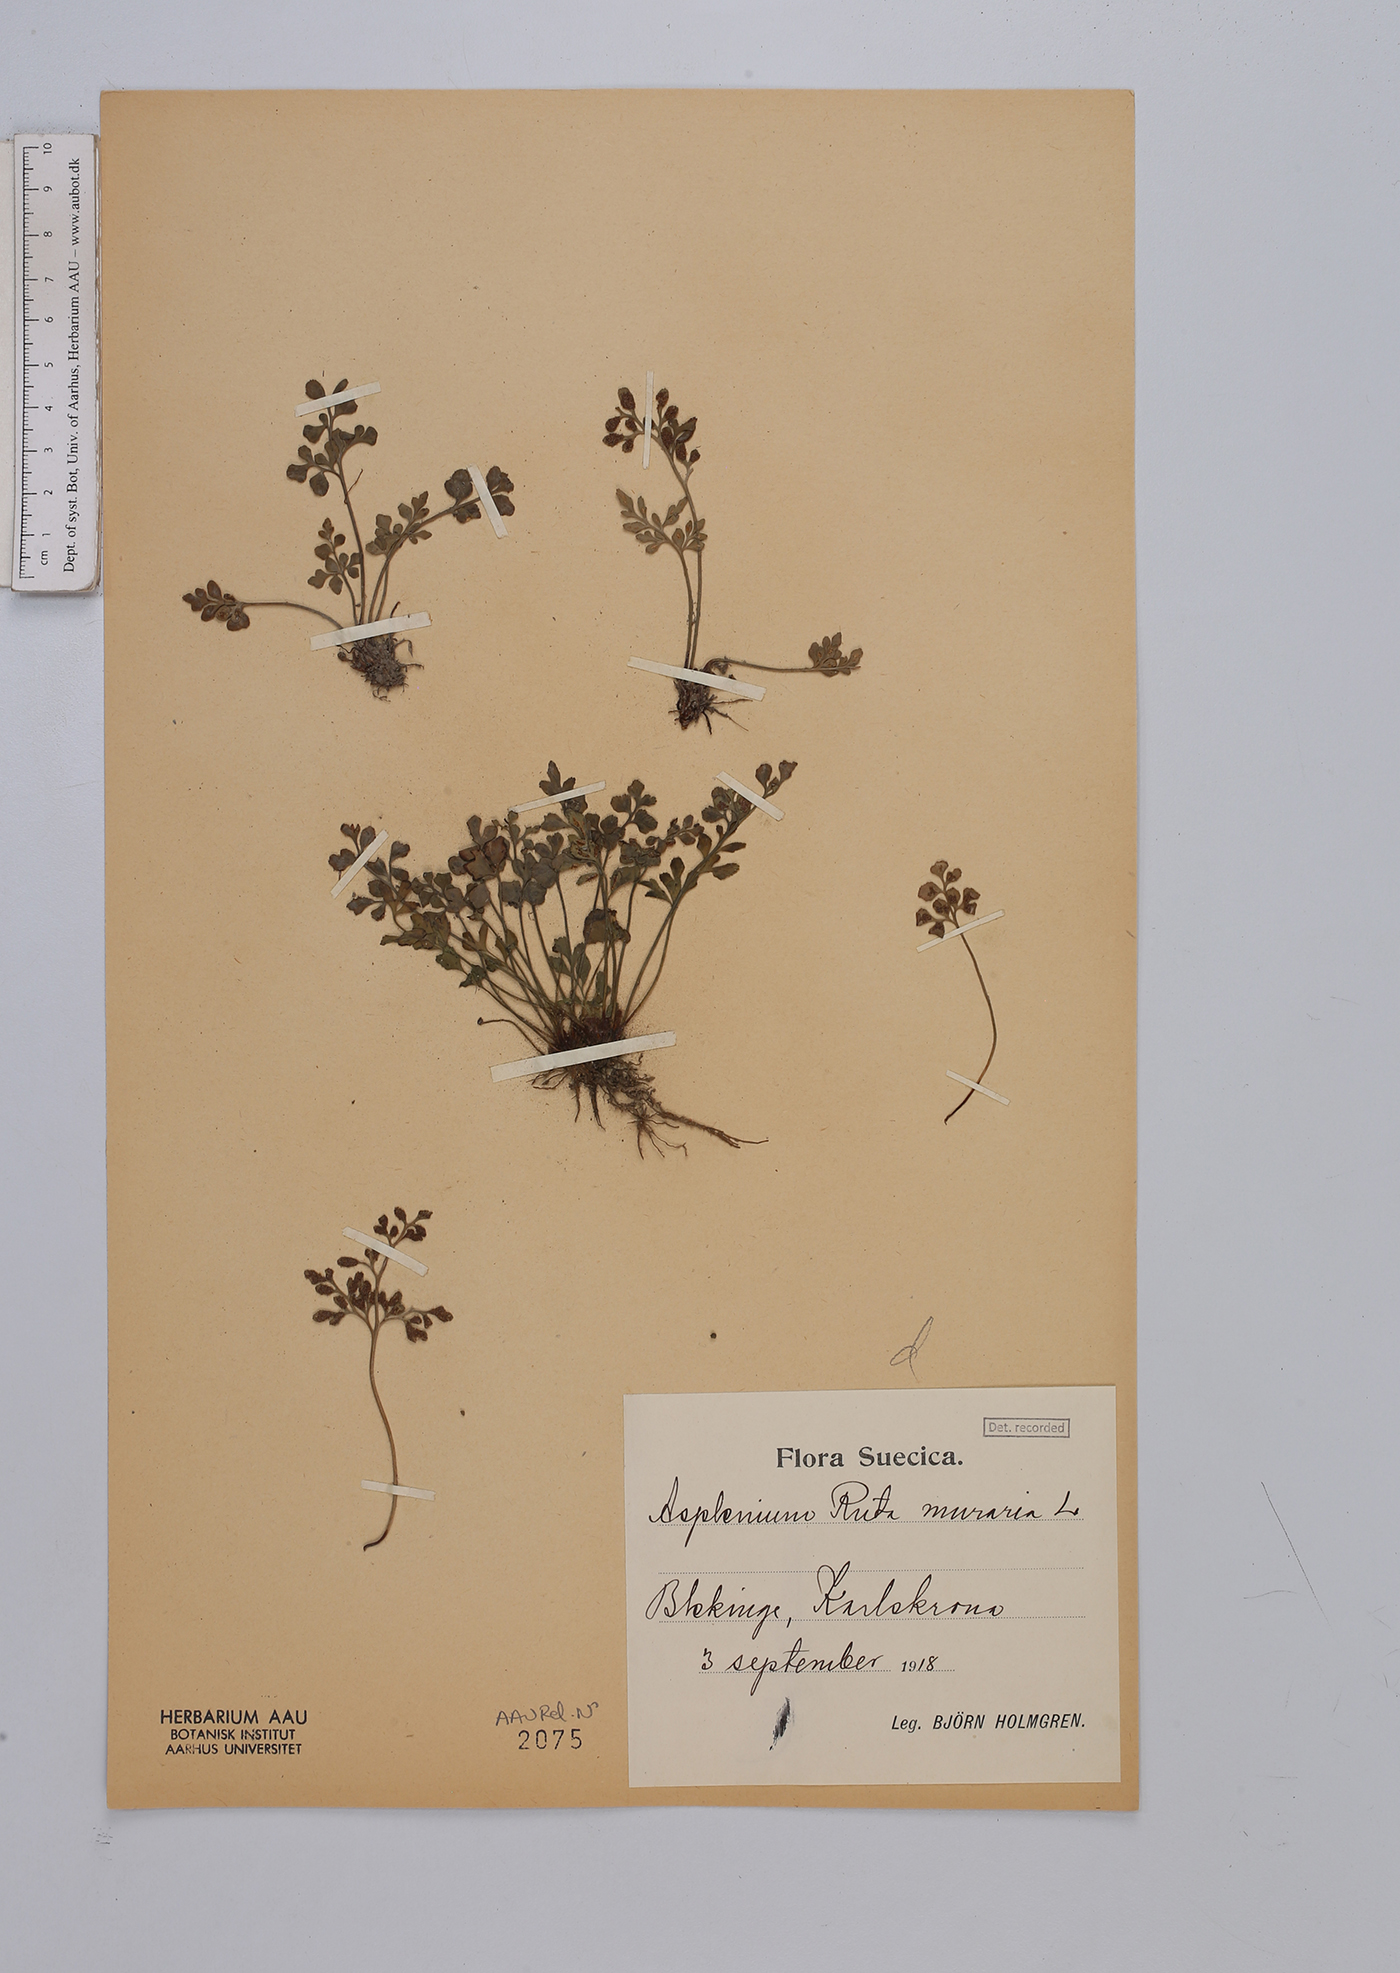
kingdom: Plantae
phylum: Tracheophyta
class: Polypodiopsida
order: Polypodiales
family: Aspleniaceae
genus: Asplenium
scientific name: Asplenium ruta-muraria
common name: Wall-rue
